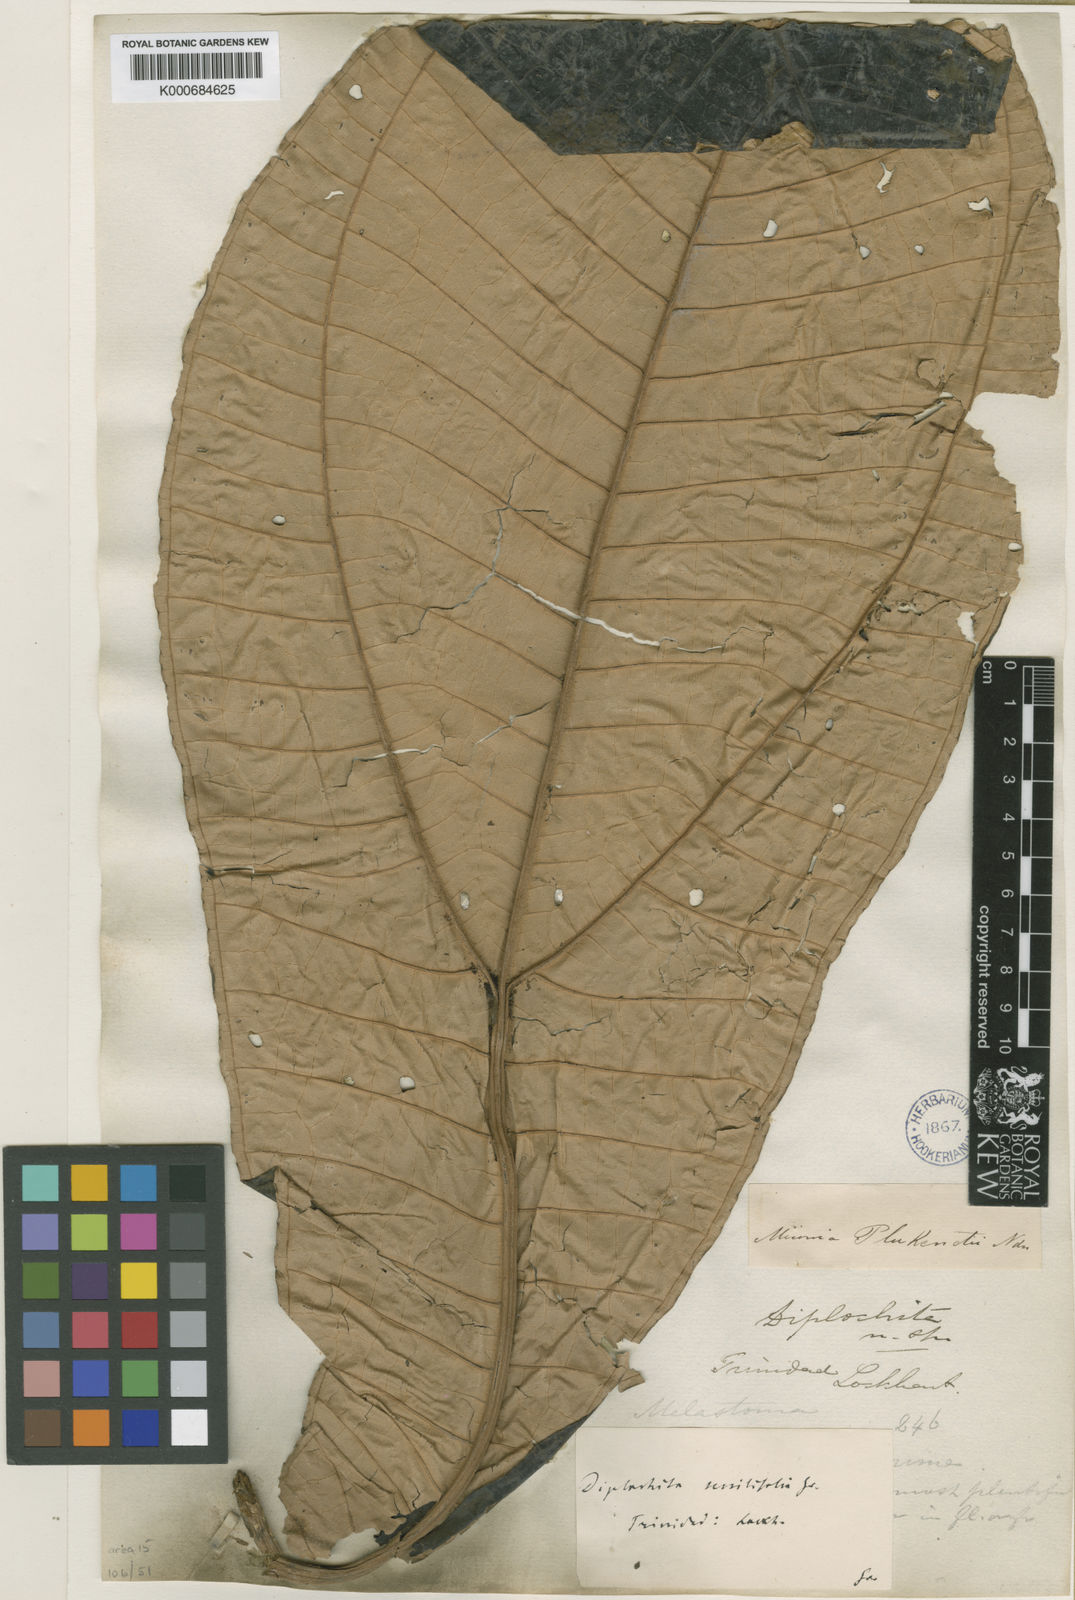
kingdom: Plantae
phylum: Tracheophyta
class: Magnoliopsida
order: Myrtales
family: Melastomataceae
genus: Miconia
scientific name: Miconia plukenetii
